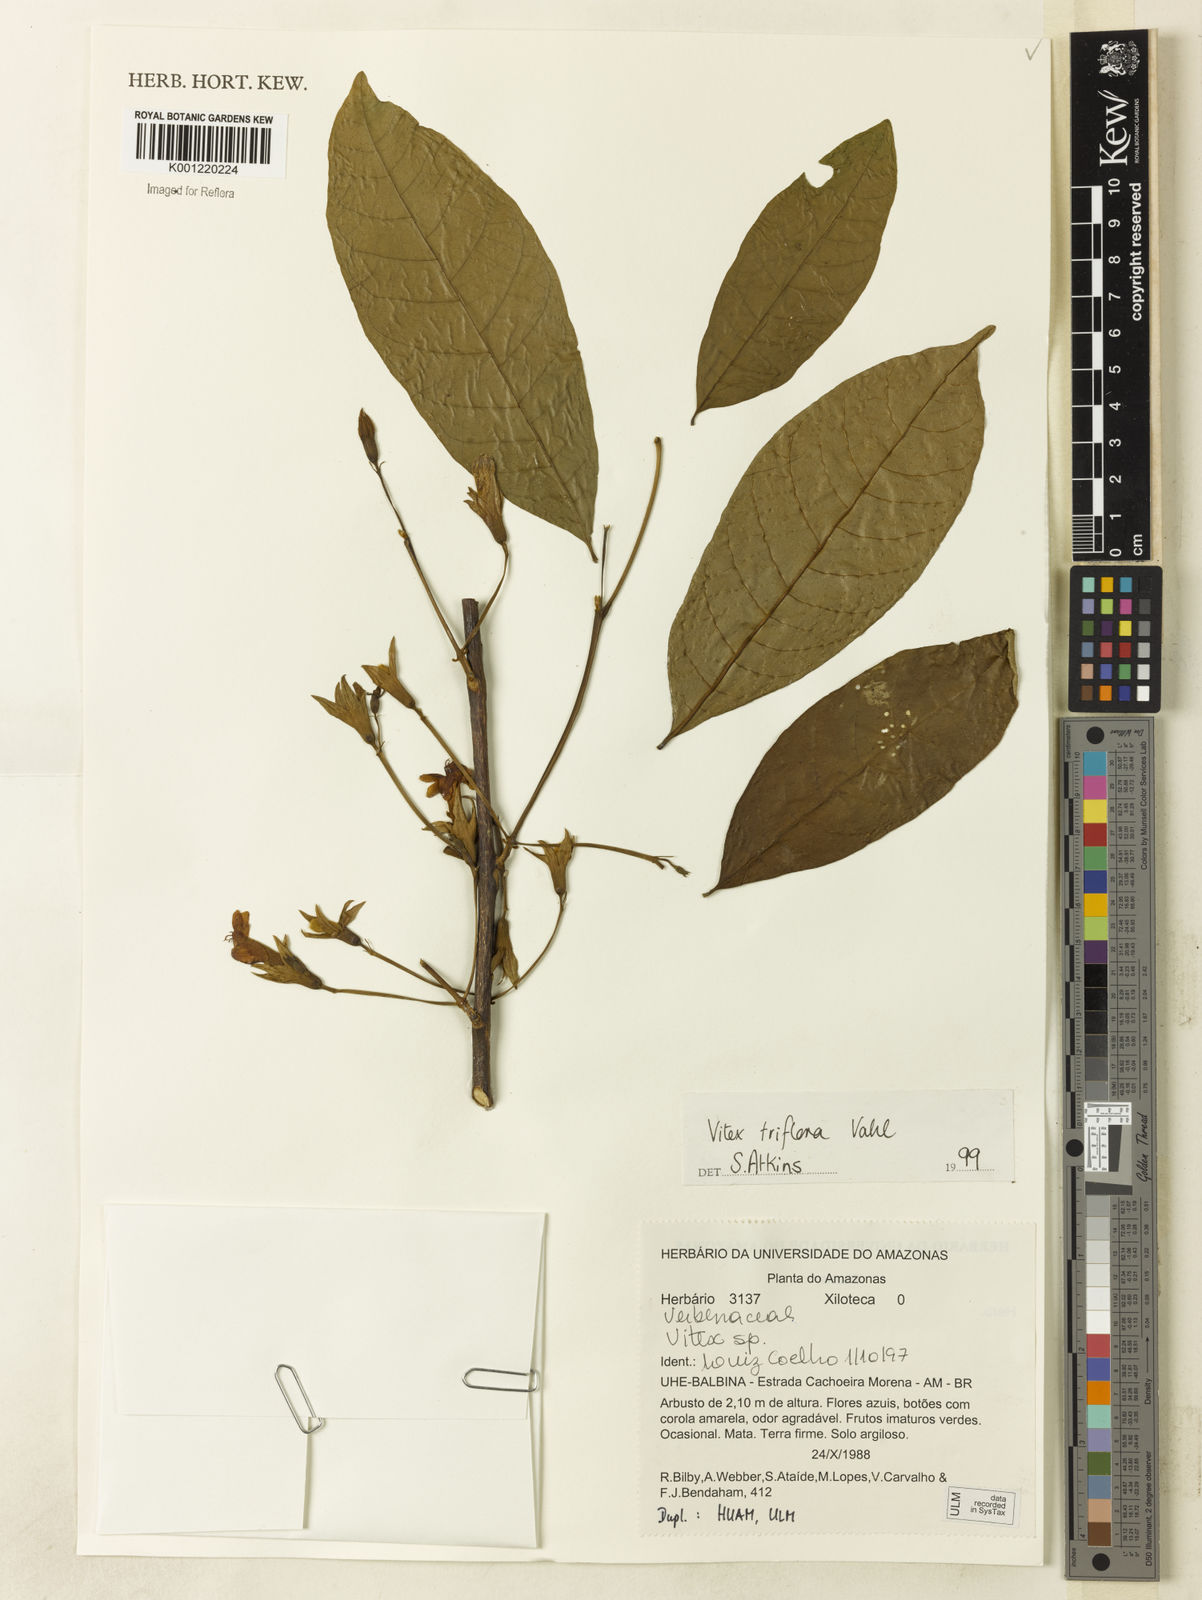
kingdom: Plantae
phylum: Tracheophyta
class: Magnoliopsida
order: Lamiales
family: Lamiaceae
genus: Vitex
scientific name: Vitex triflora
